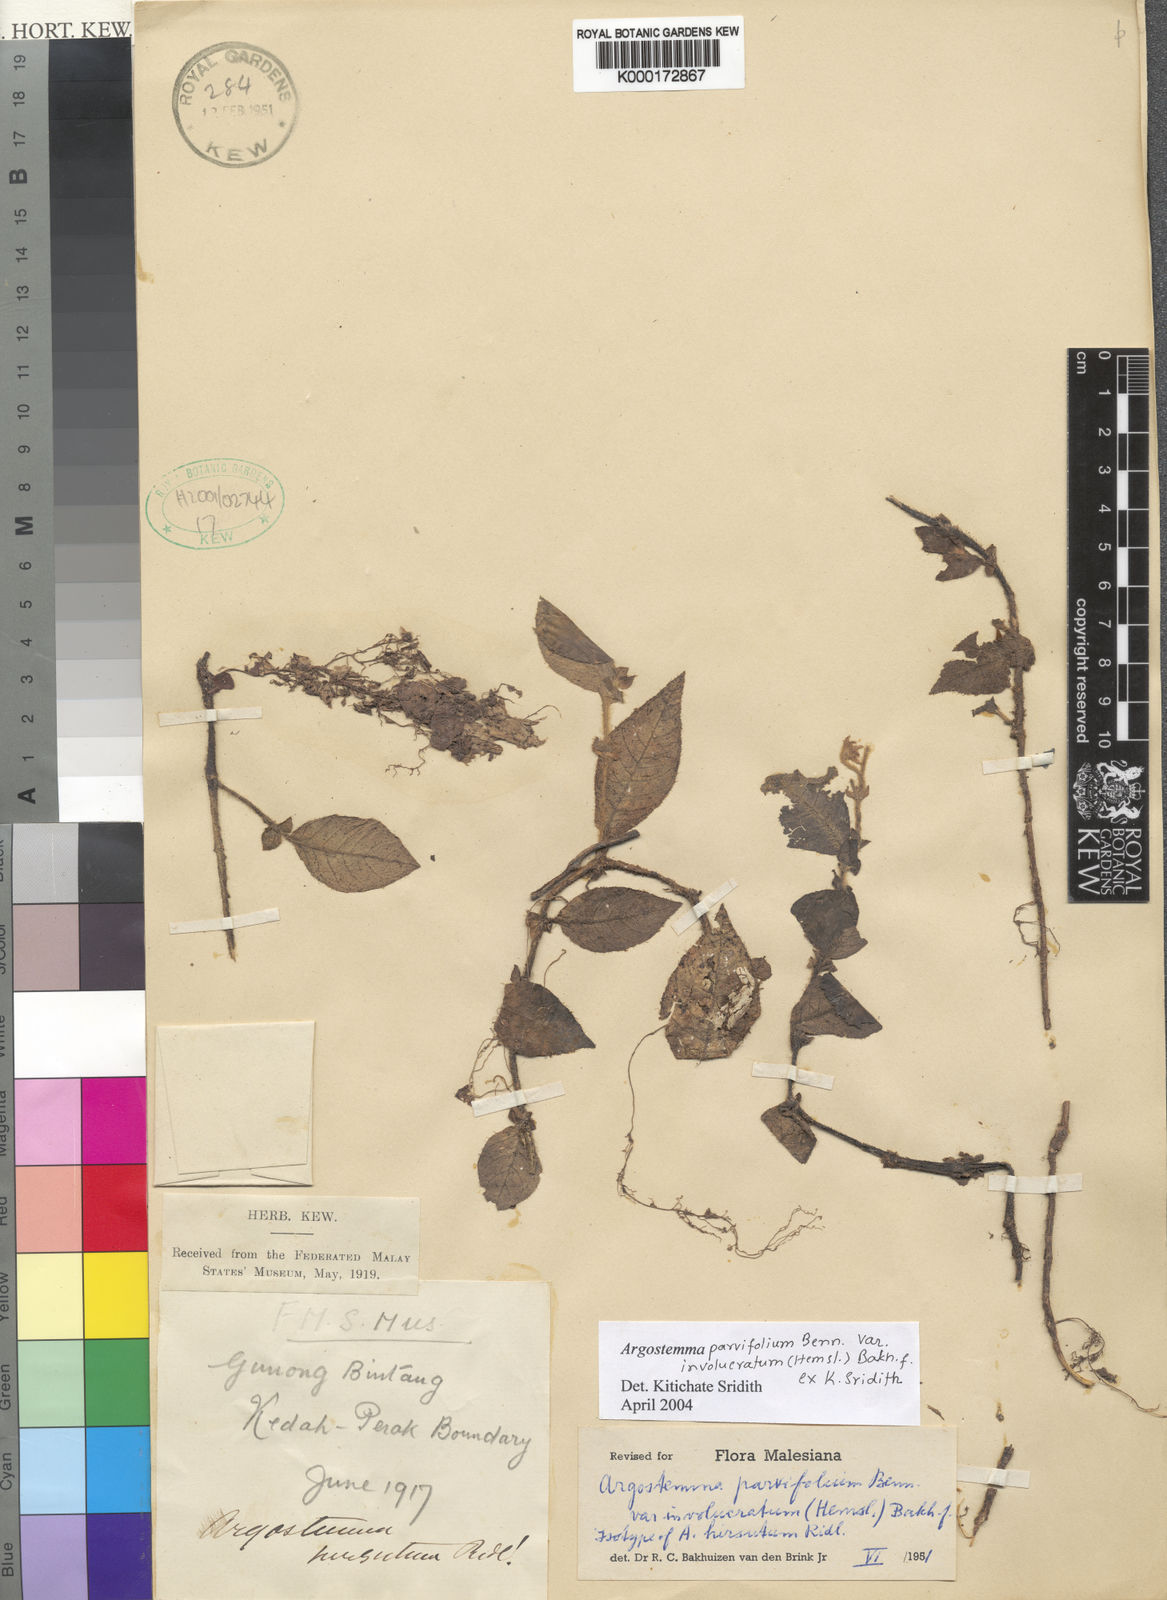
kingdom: Plantae
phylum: Tracheophyta
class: Magnoliopsida
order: Gentianales
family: Rubiaceae
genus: Argostemma
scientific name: Argostemma parvifolium
